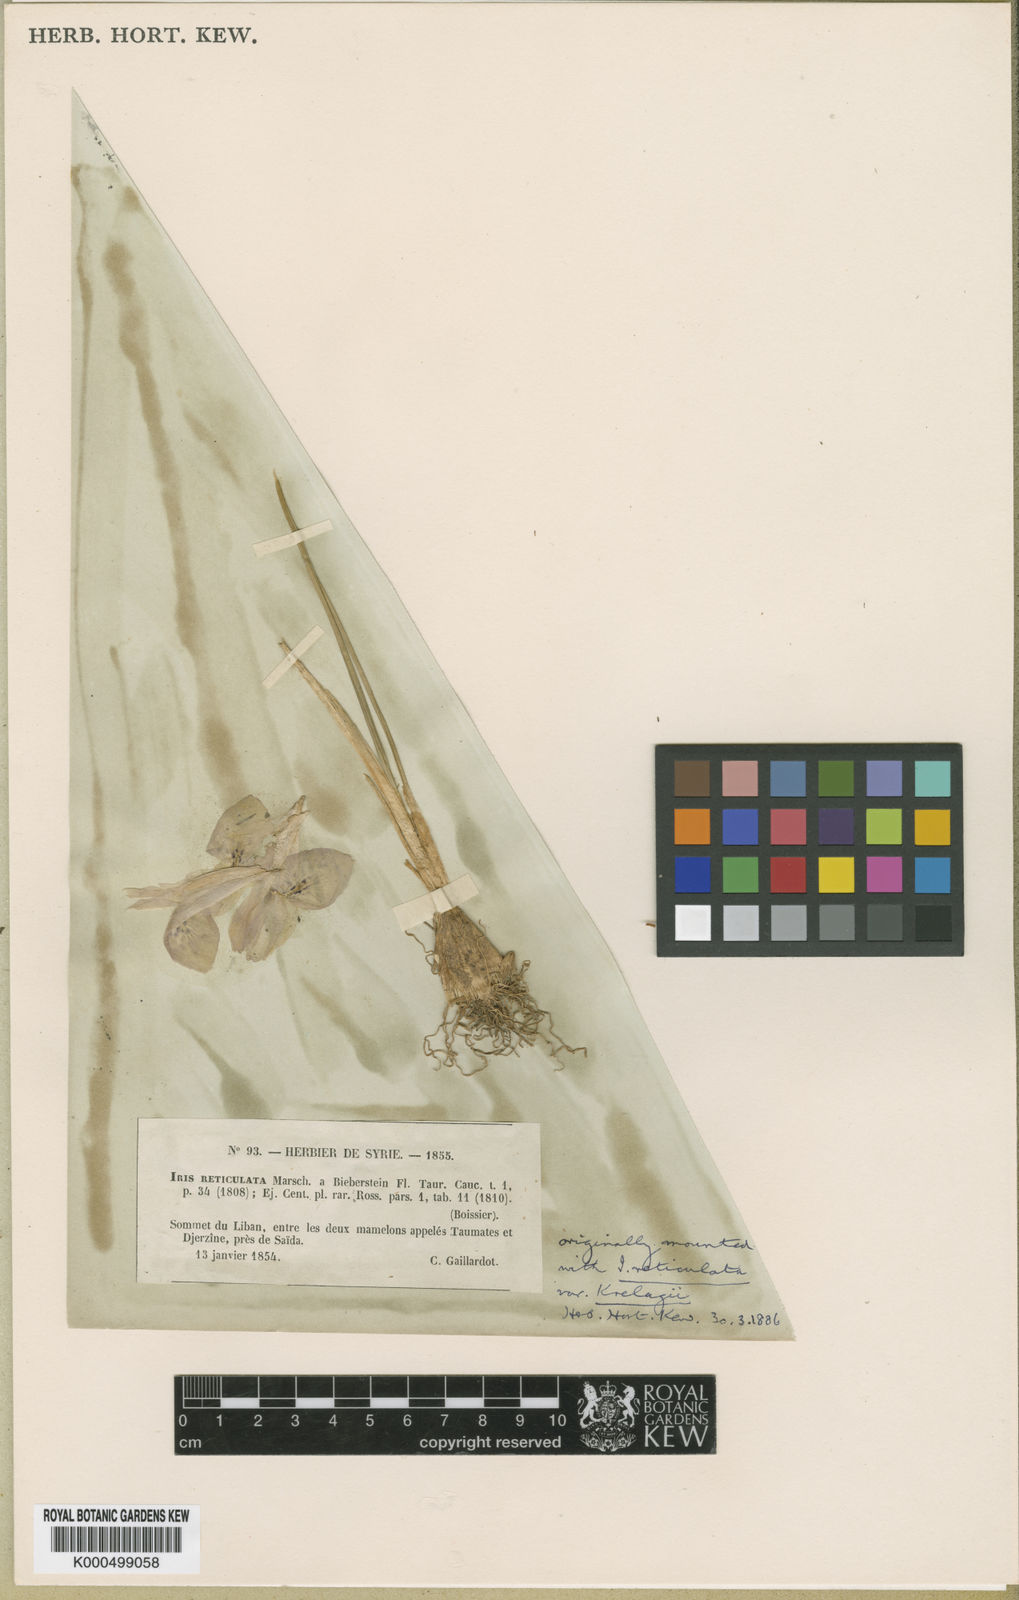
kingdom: Plantae
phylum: Tracheophyta
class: Liliopsida
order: Asparagales
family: Iridaceae
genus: Iris
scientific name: Iris histrio
